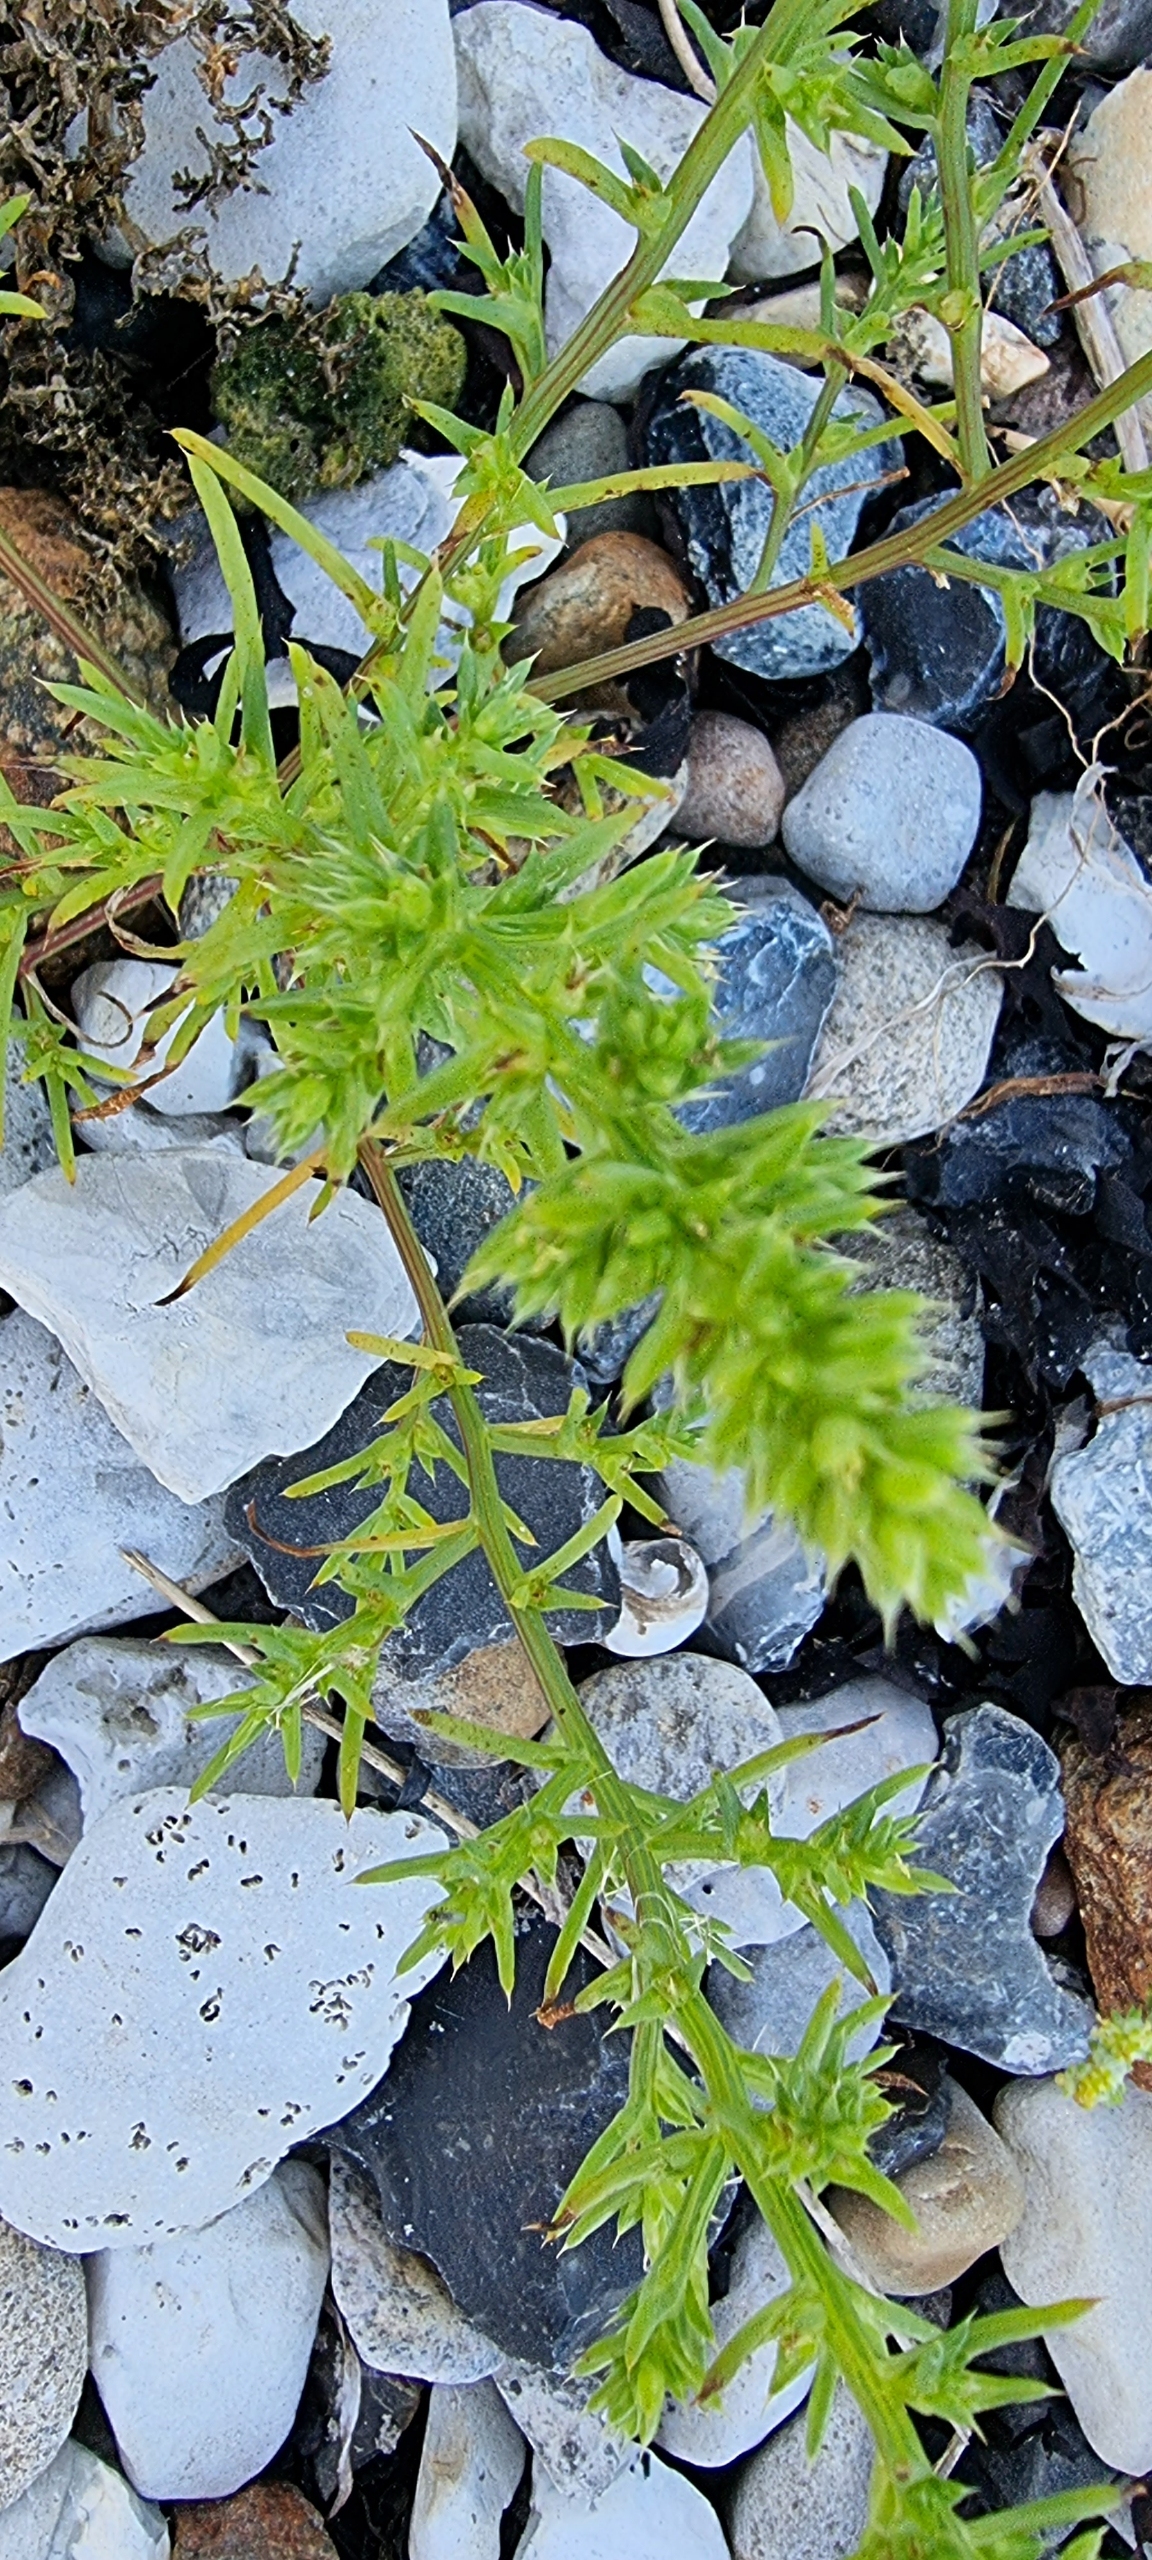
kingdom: Plantae
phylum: Tracheophyta
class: Magnoliopsida
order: Caryophyllales
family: Amaranthaceae
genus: Salsola
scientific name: Salsola kali
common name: Sodaurt
